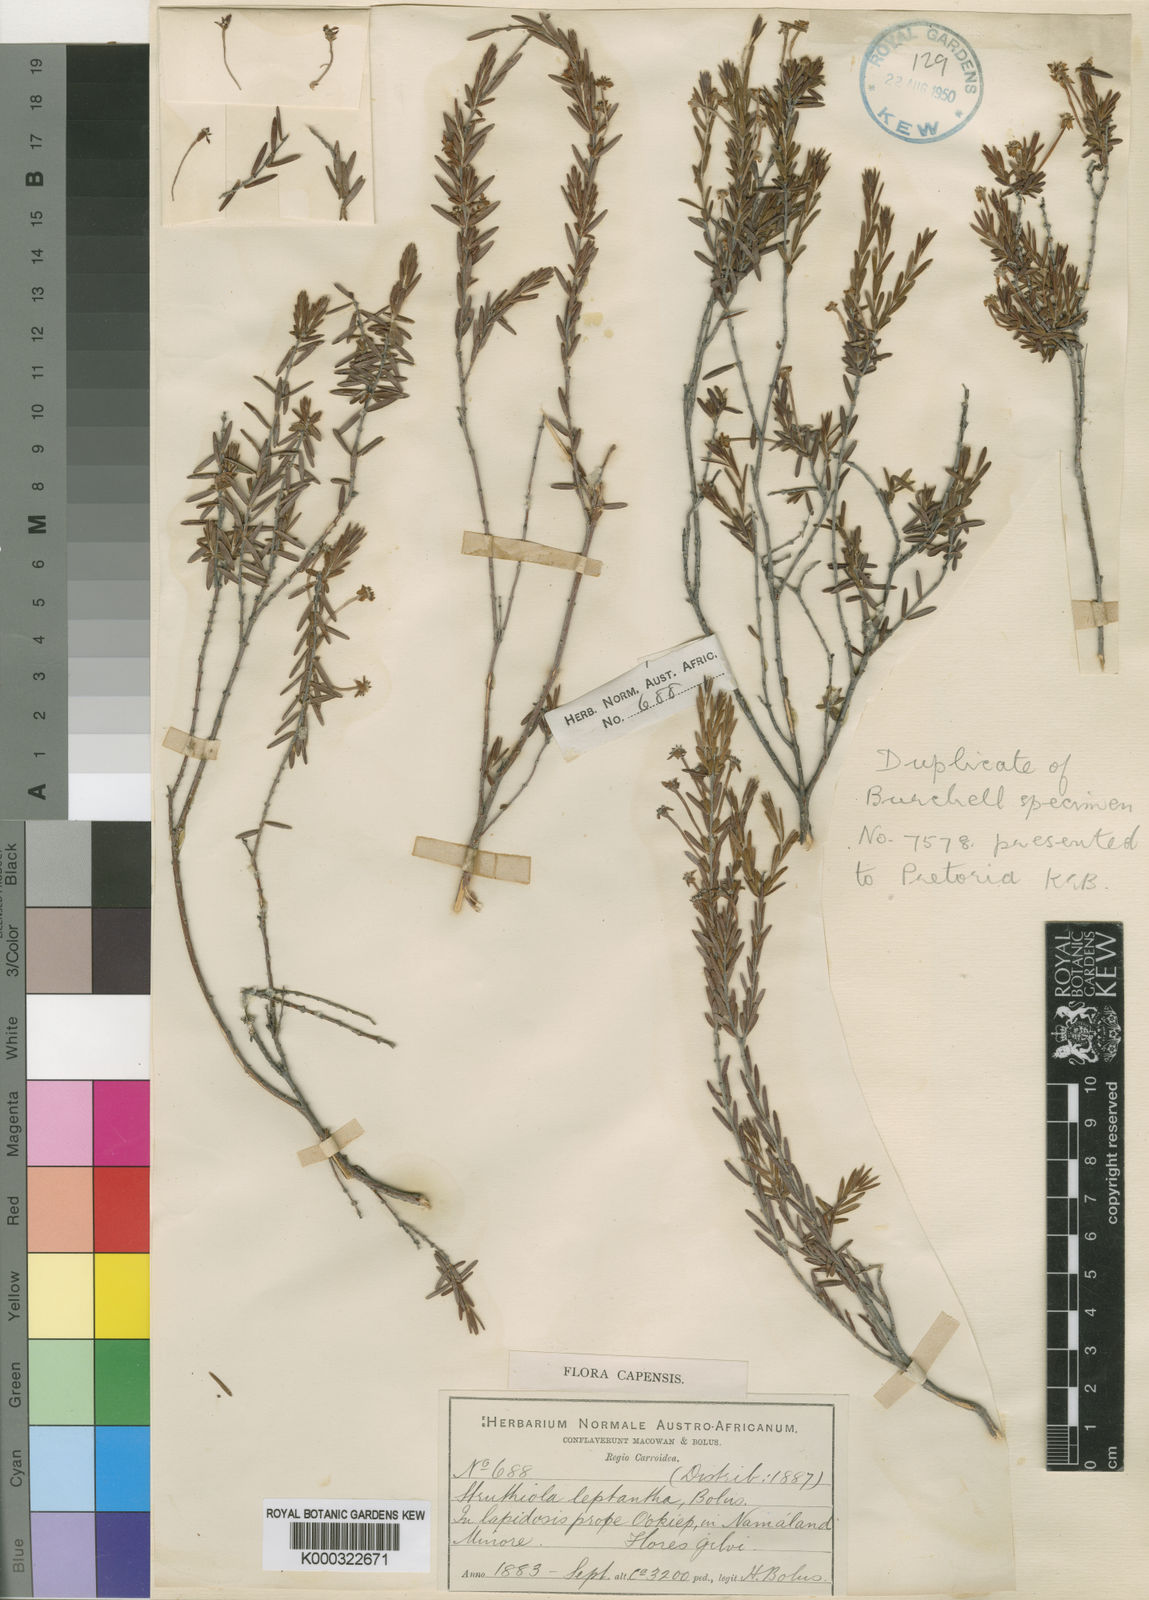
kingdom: Plantae
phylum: Tracheophyta
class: Magnoliopsida
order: Malvales
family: Thymelaeaceae
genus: Struthiola
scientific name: Struthiola leptantha
